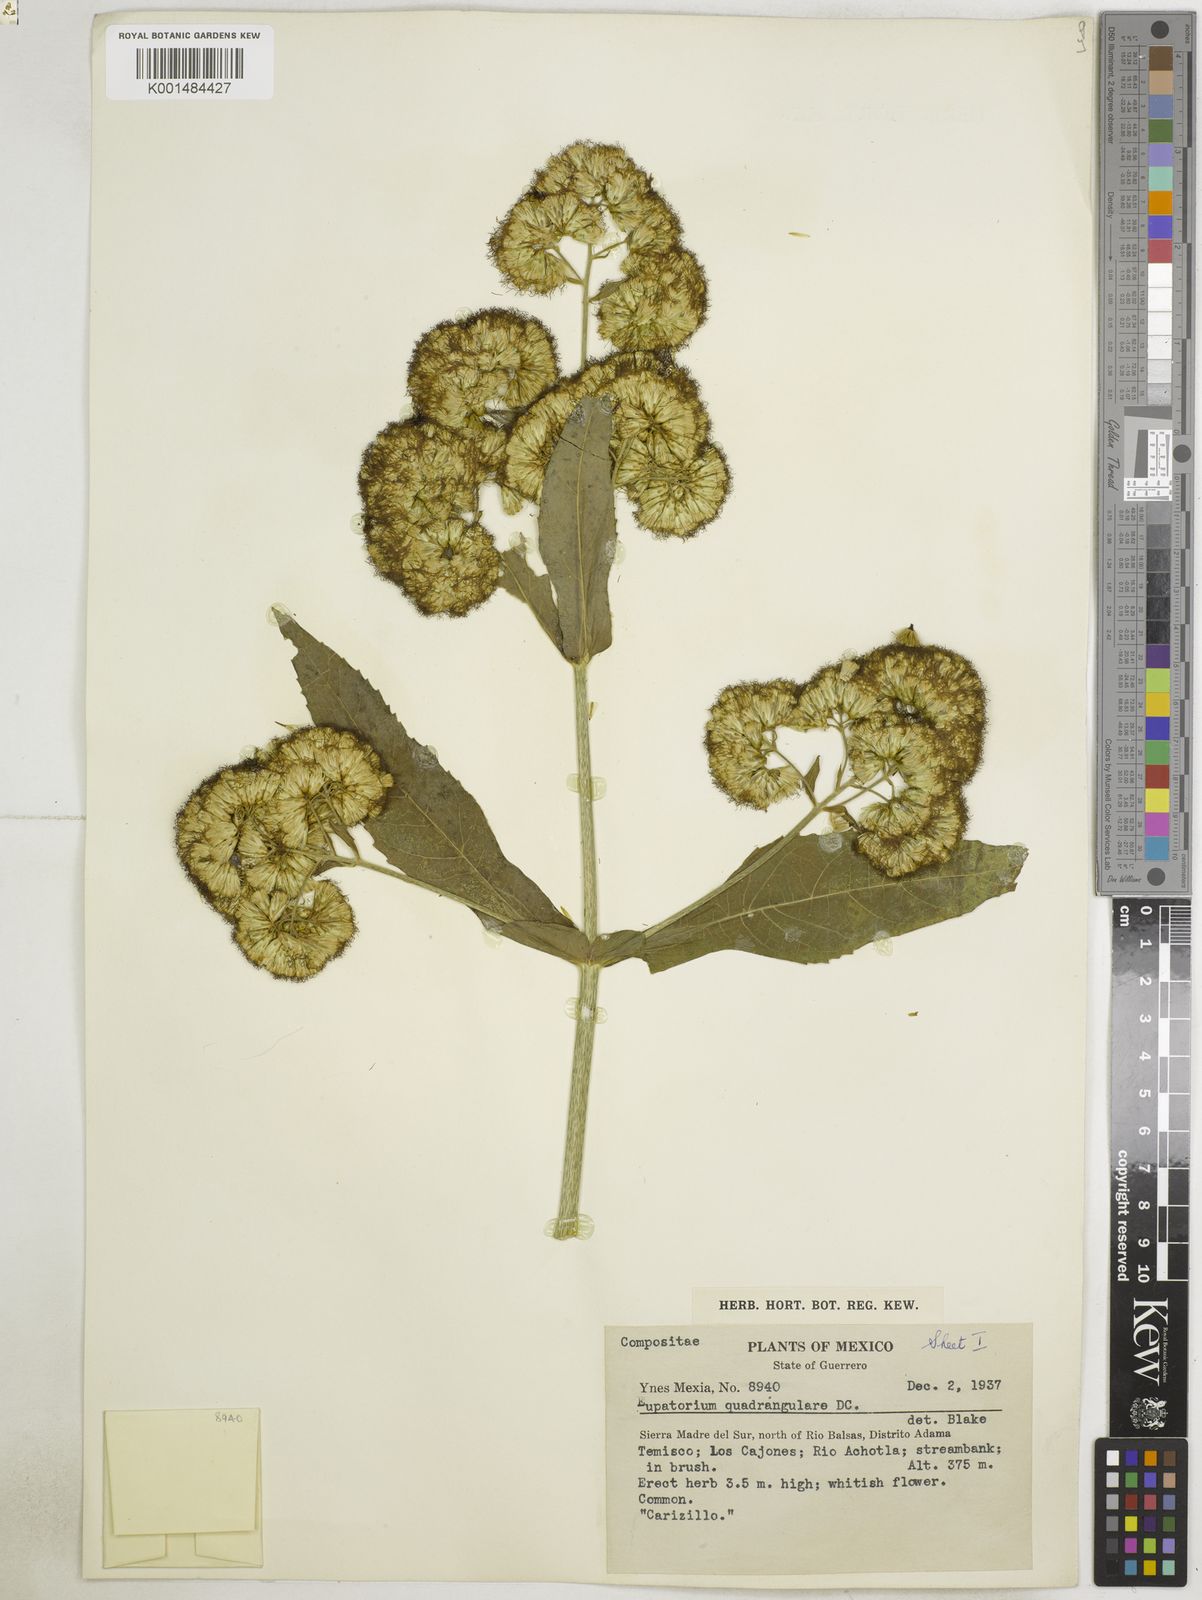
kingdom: Plantae
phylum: Tracheophyta
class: Magnoliopsida
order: Asterales
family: Asteraceae
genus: Critonia
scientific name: Critonia quadrangularis
